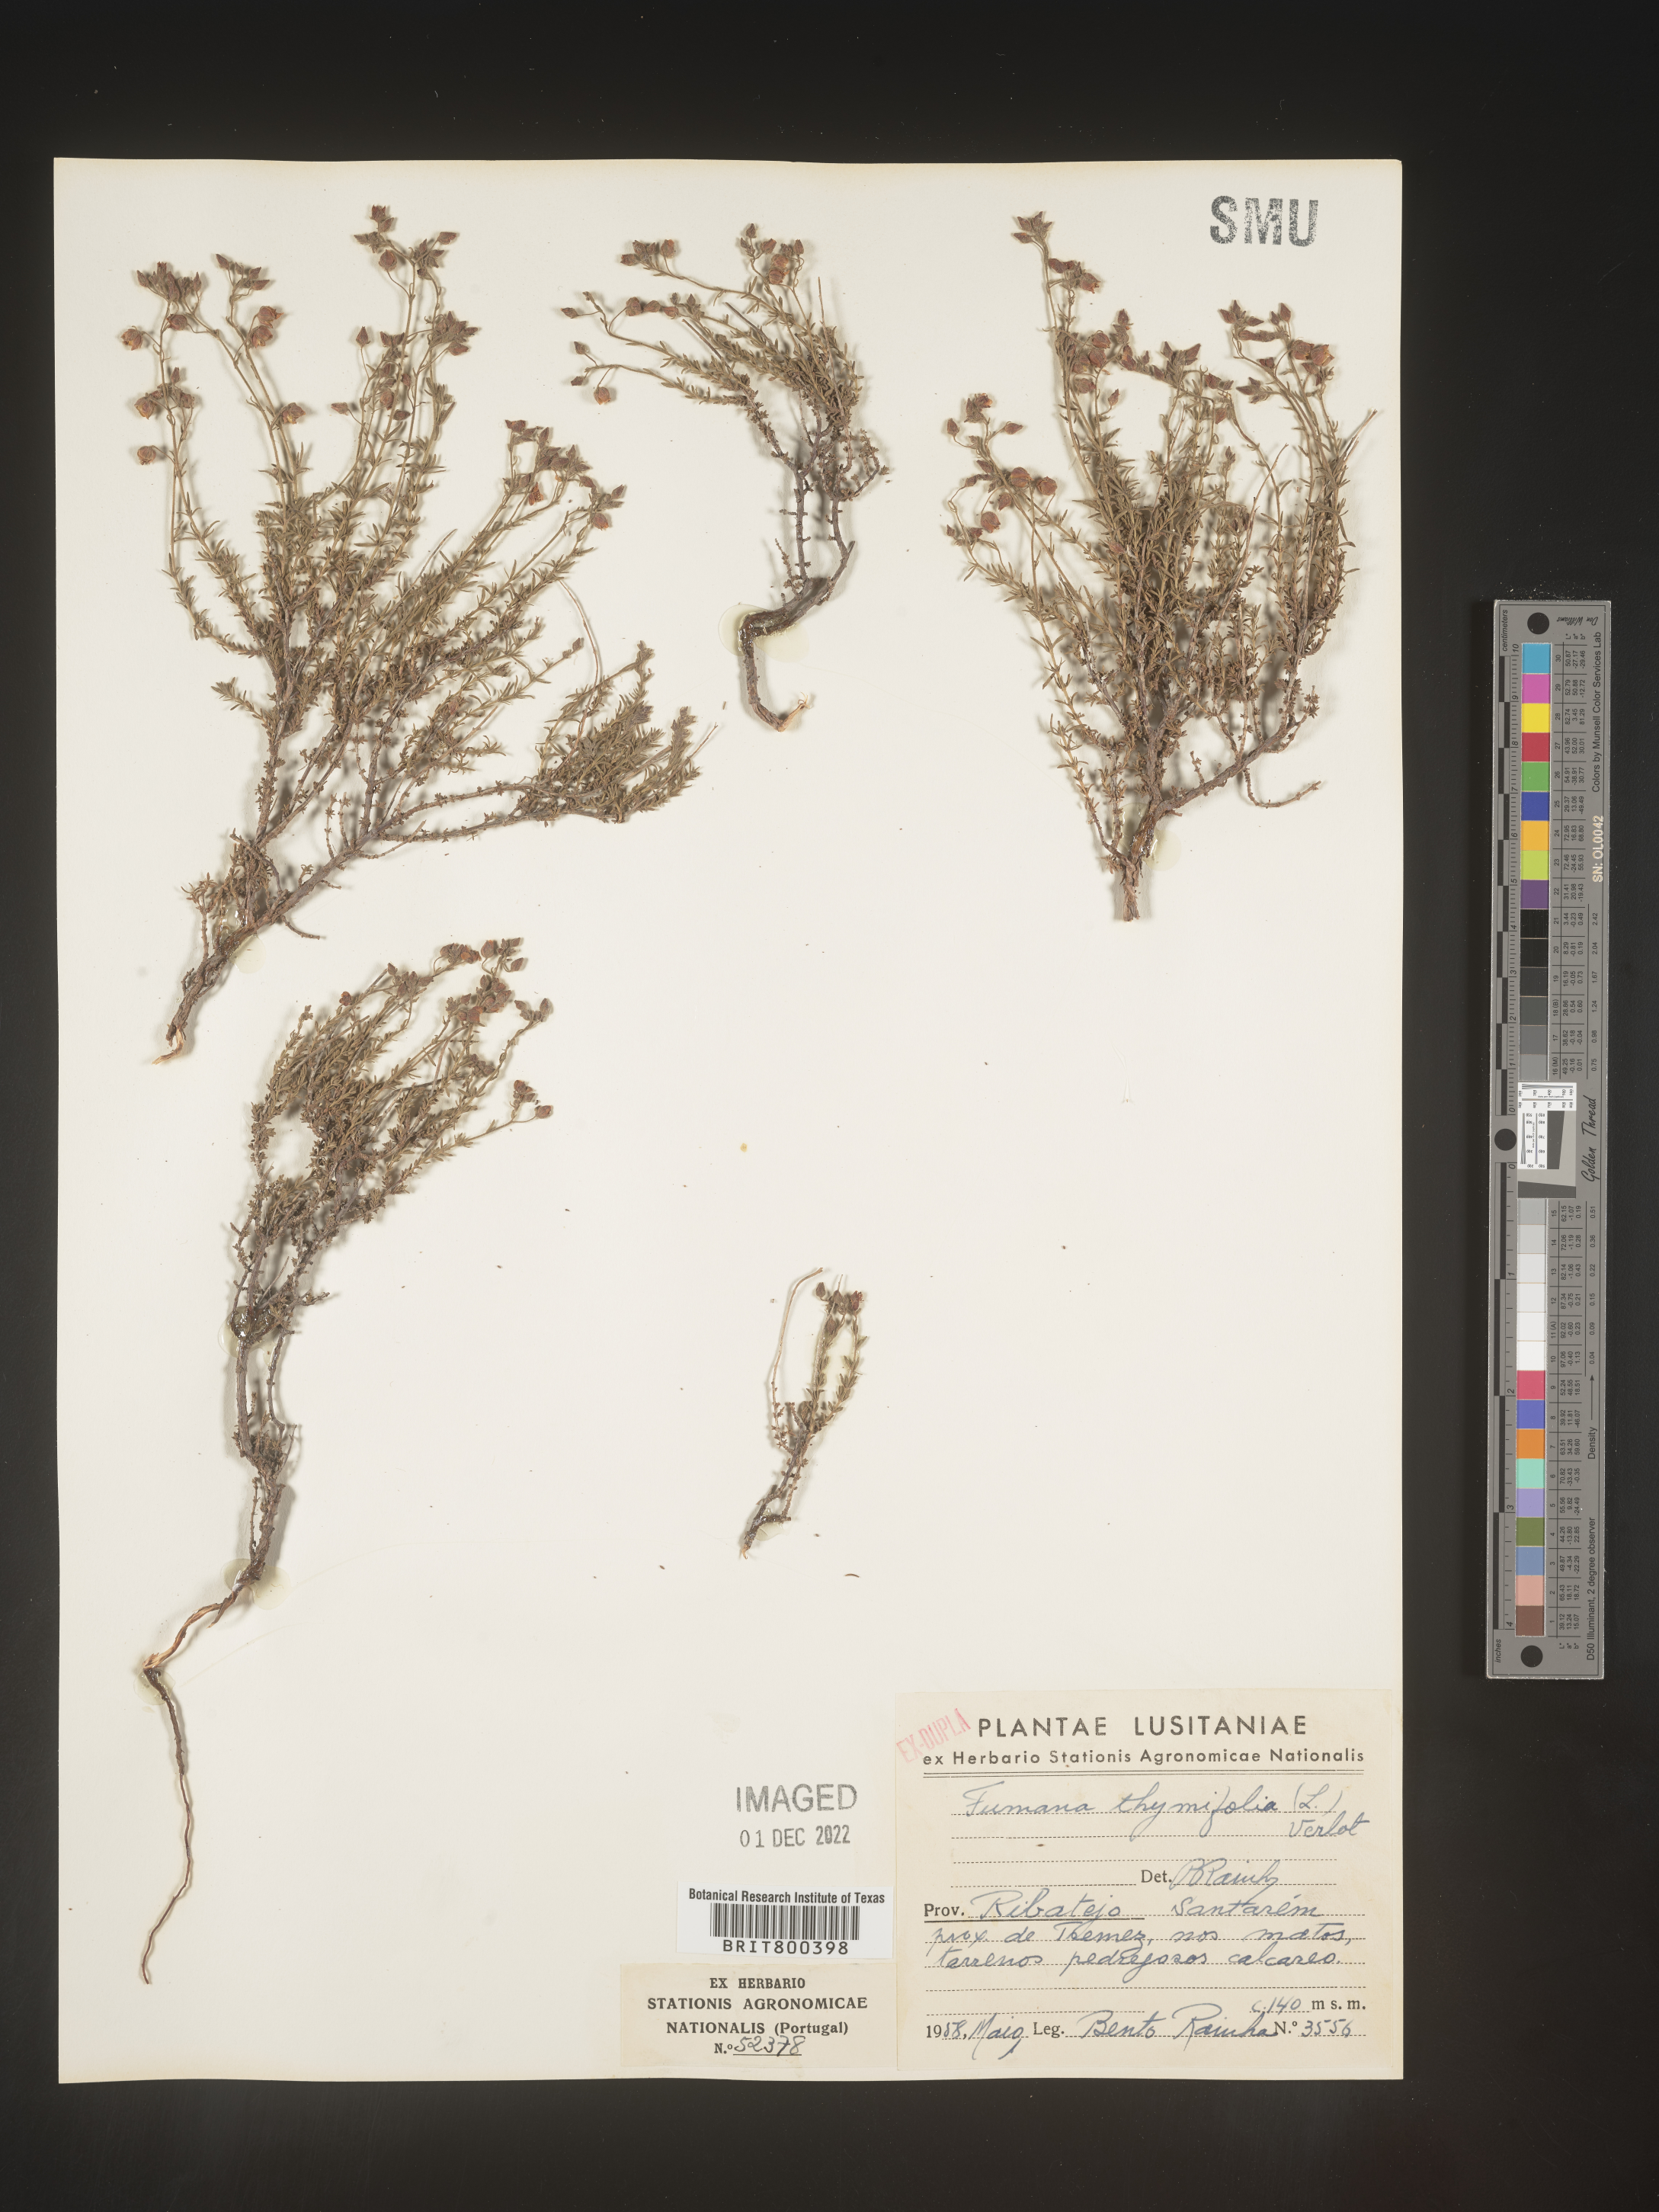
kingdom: Plantae
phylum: Tracheophyta
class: Magnoliopsida
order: Malvales
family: Cistaceae
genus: Fumana
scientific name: Fumana
